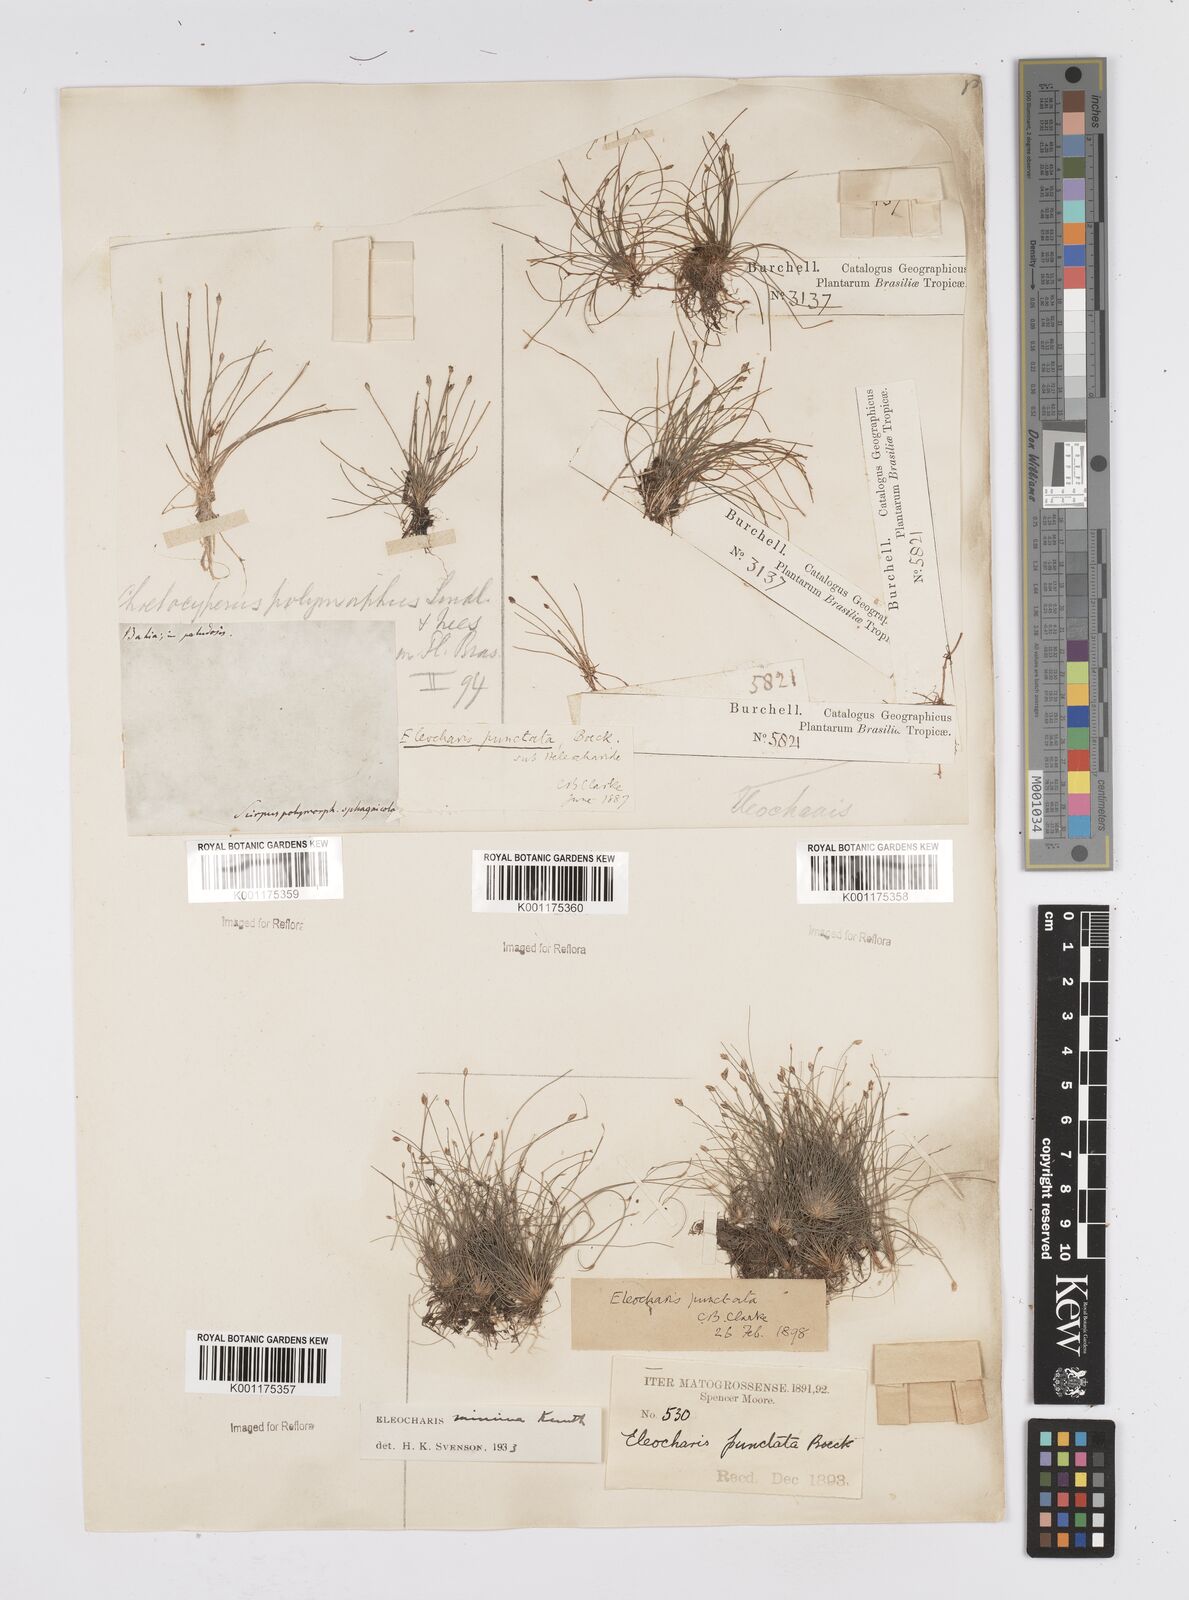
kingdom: Plantae
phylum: Tracheophyta
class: Liliopsida
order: Poales
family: Cyperaceae
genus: Eleocharis
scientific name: Eleocharis nana
